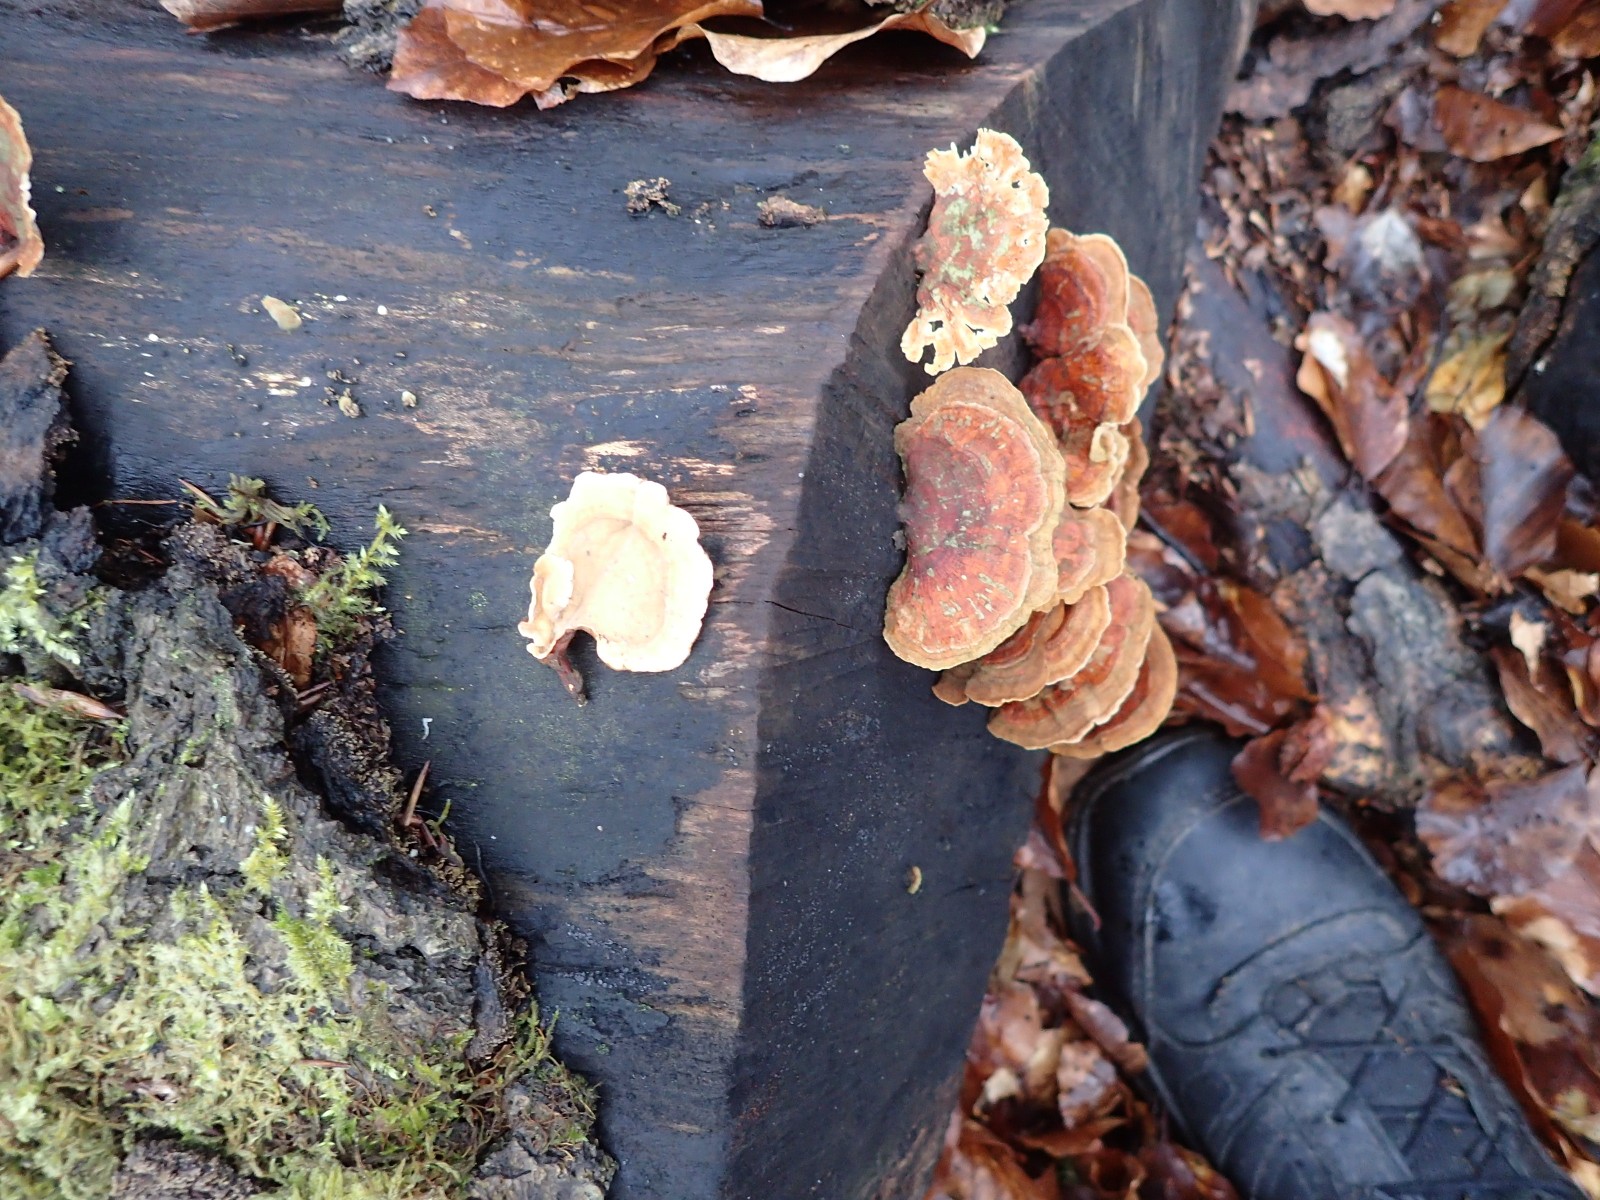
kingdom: Fungi
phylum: Basidiomycota
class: Agaricomycetes
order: Russulales
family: Stereaceae
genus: Stereum
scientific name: Stereum subtomentosum
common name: smuk lædersvamp
